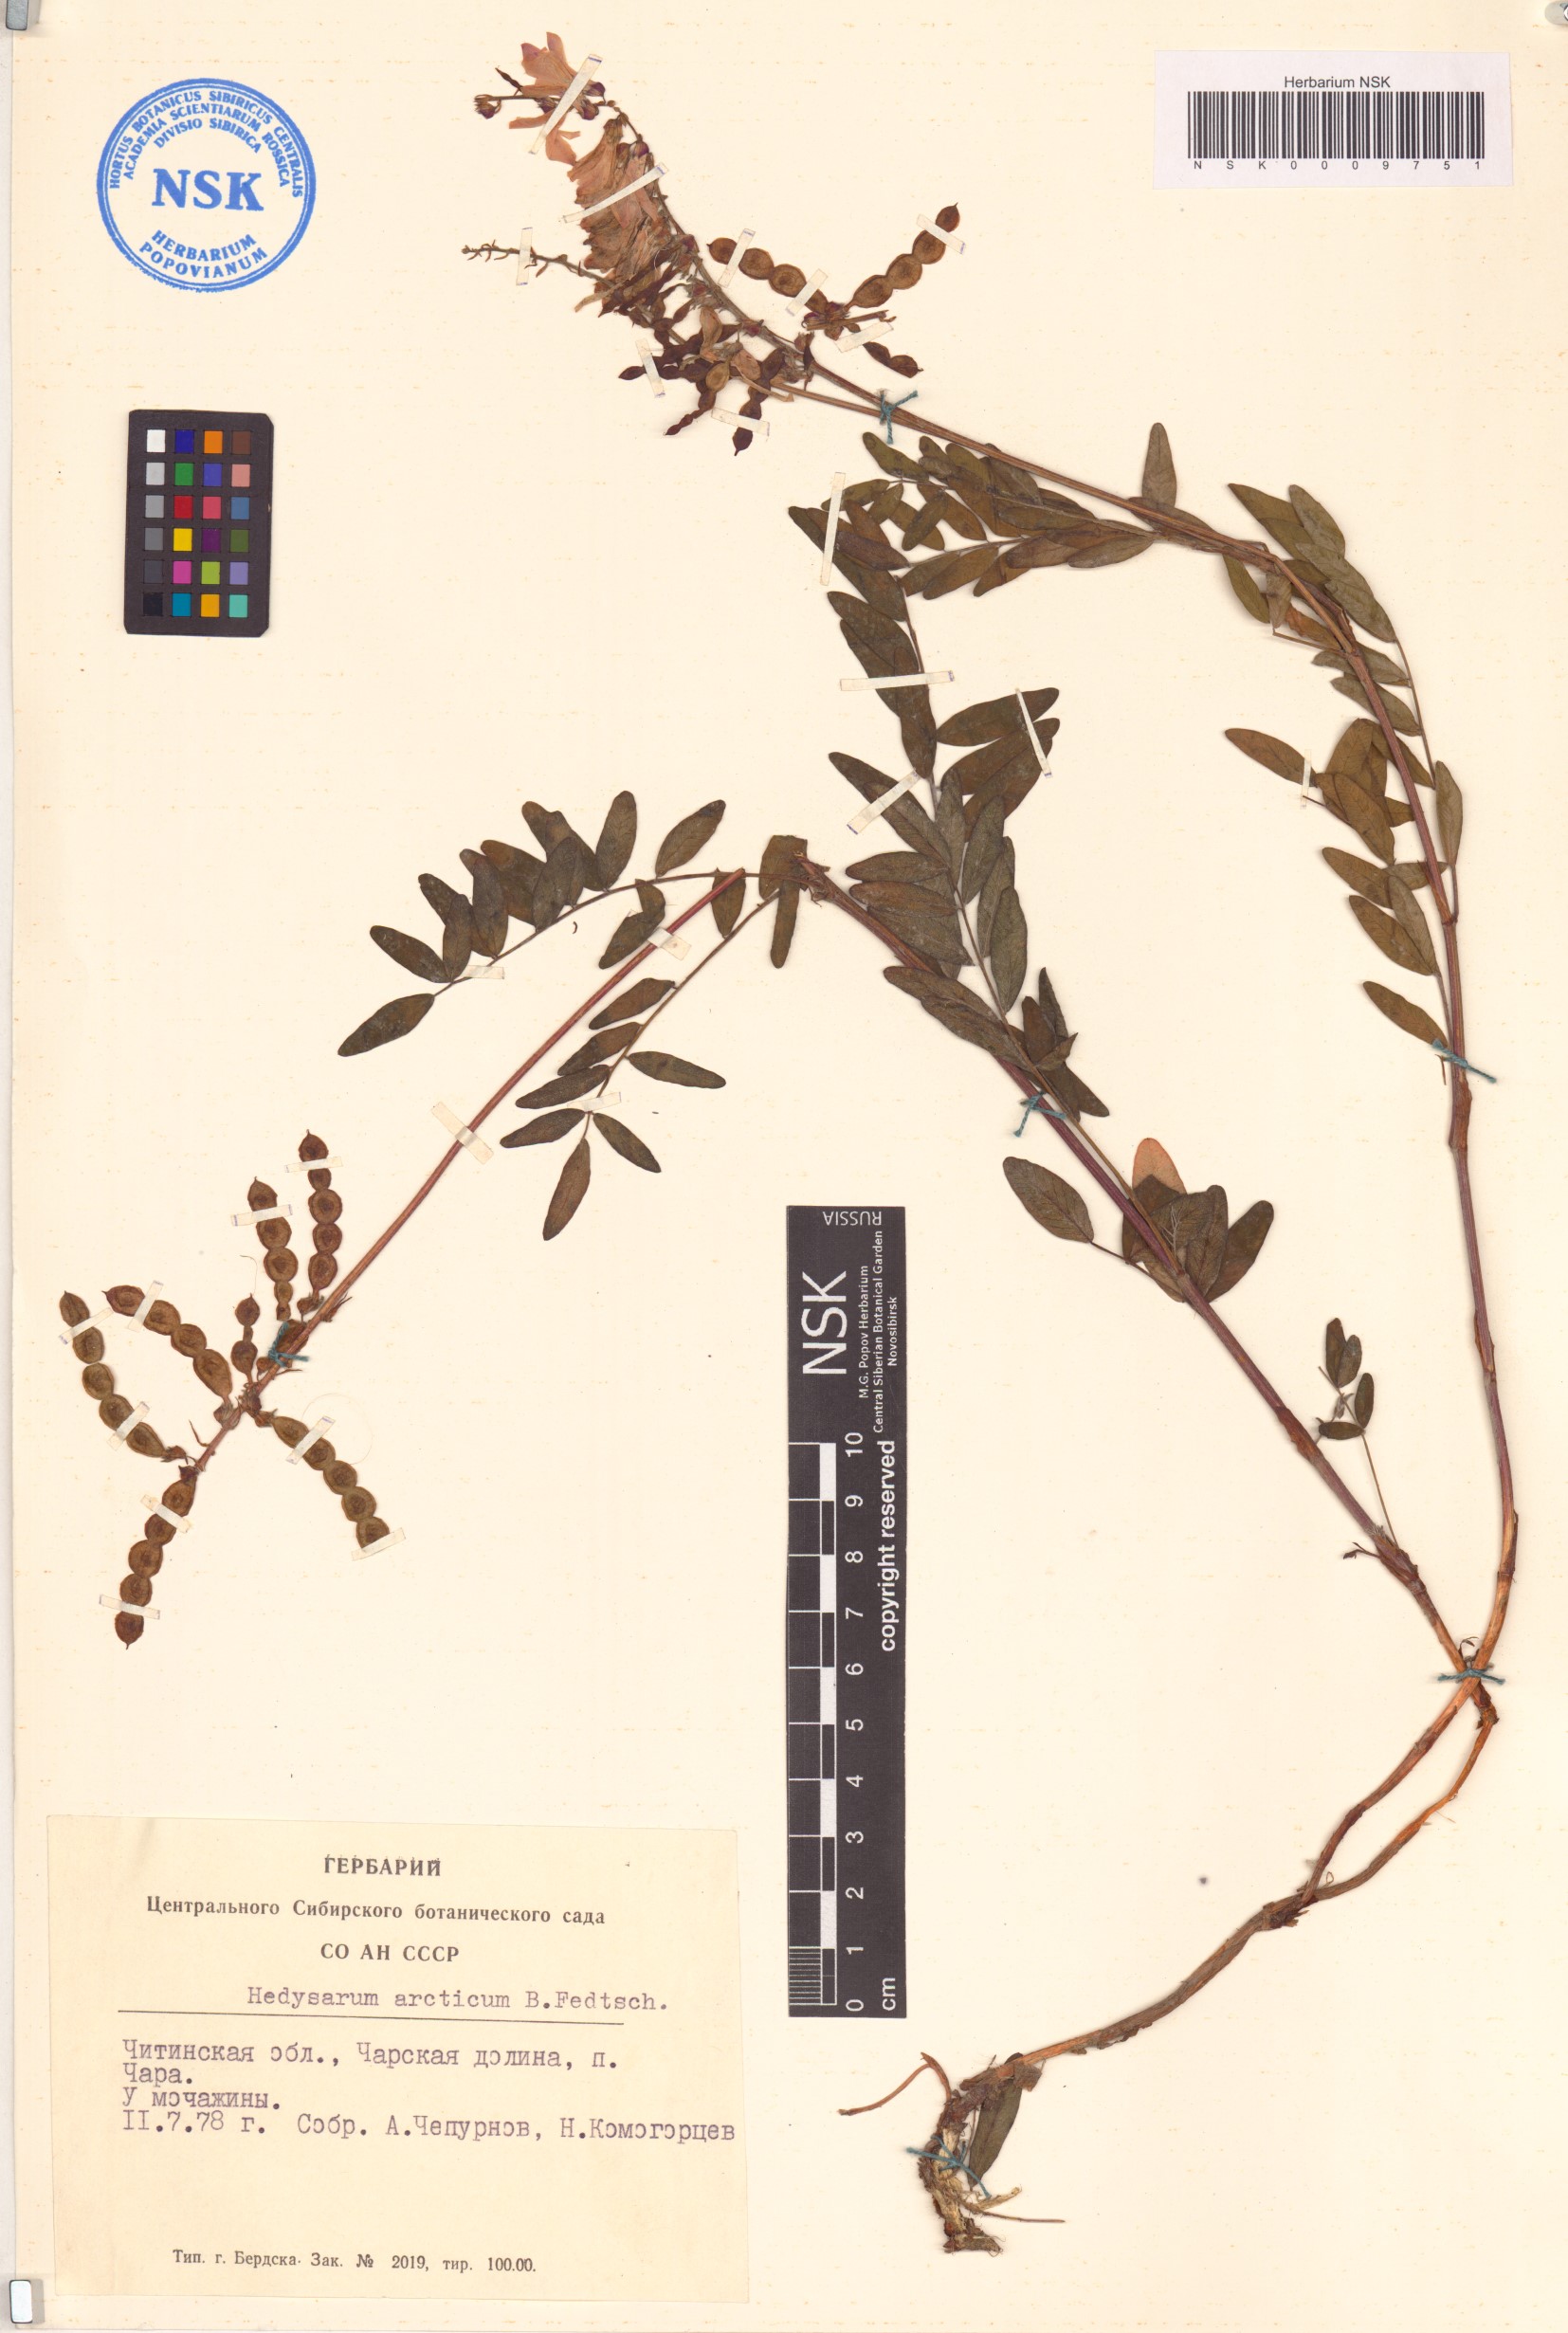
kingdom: Plantae
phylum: Tracheophyta
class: Magnoliopsida
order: Fabales
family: Fabaceae
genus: Hedysarum
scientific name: Hedysarum hedysaroides
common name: Alpine french-honeysuckle
